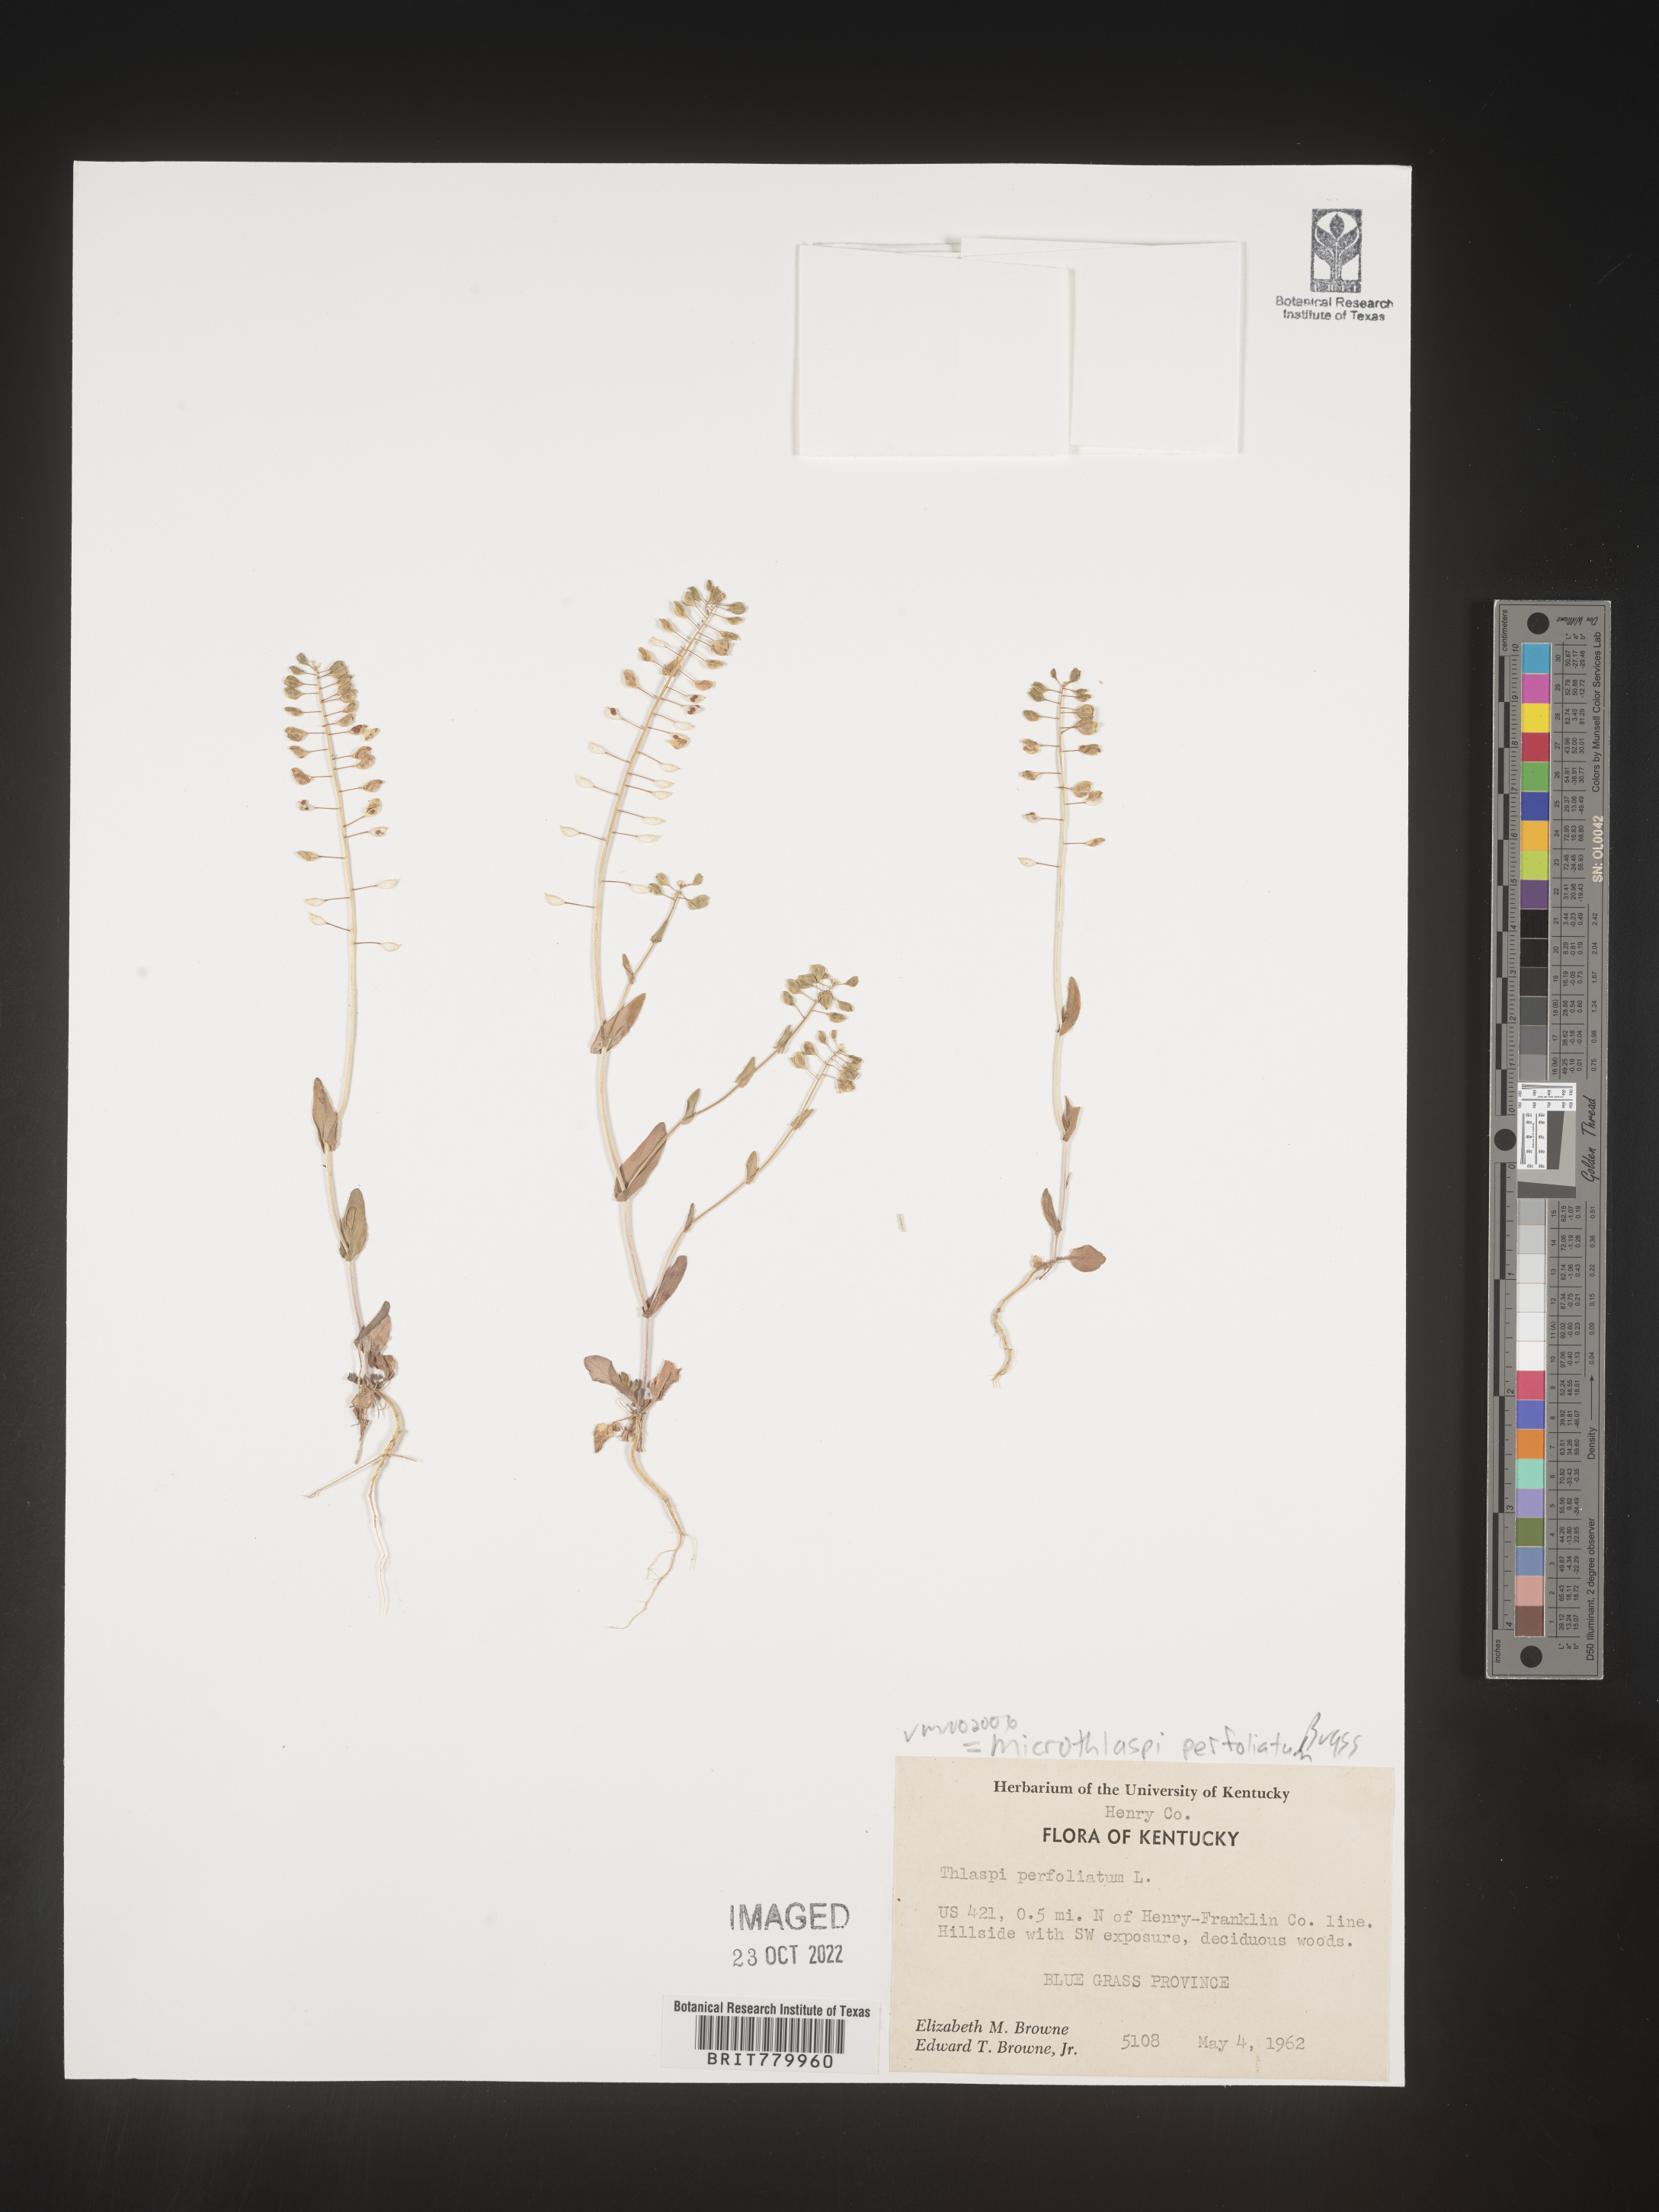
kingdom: Plantae
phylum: Tracheophyta
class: Magnoliopsida
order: Brassicales
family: Brassicaceae
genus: Thlaspi
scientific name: Thlaspi
